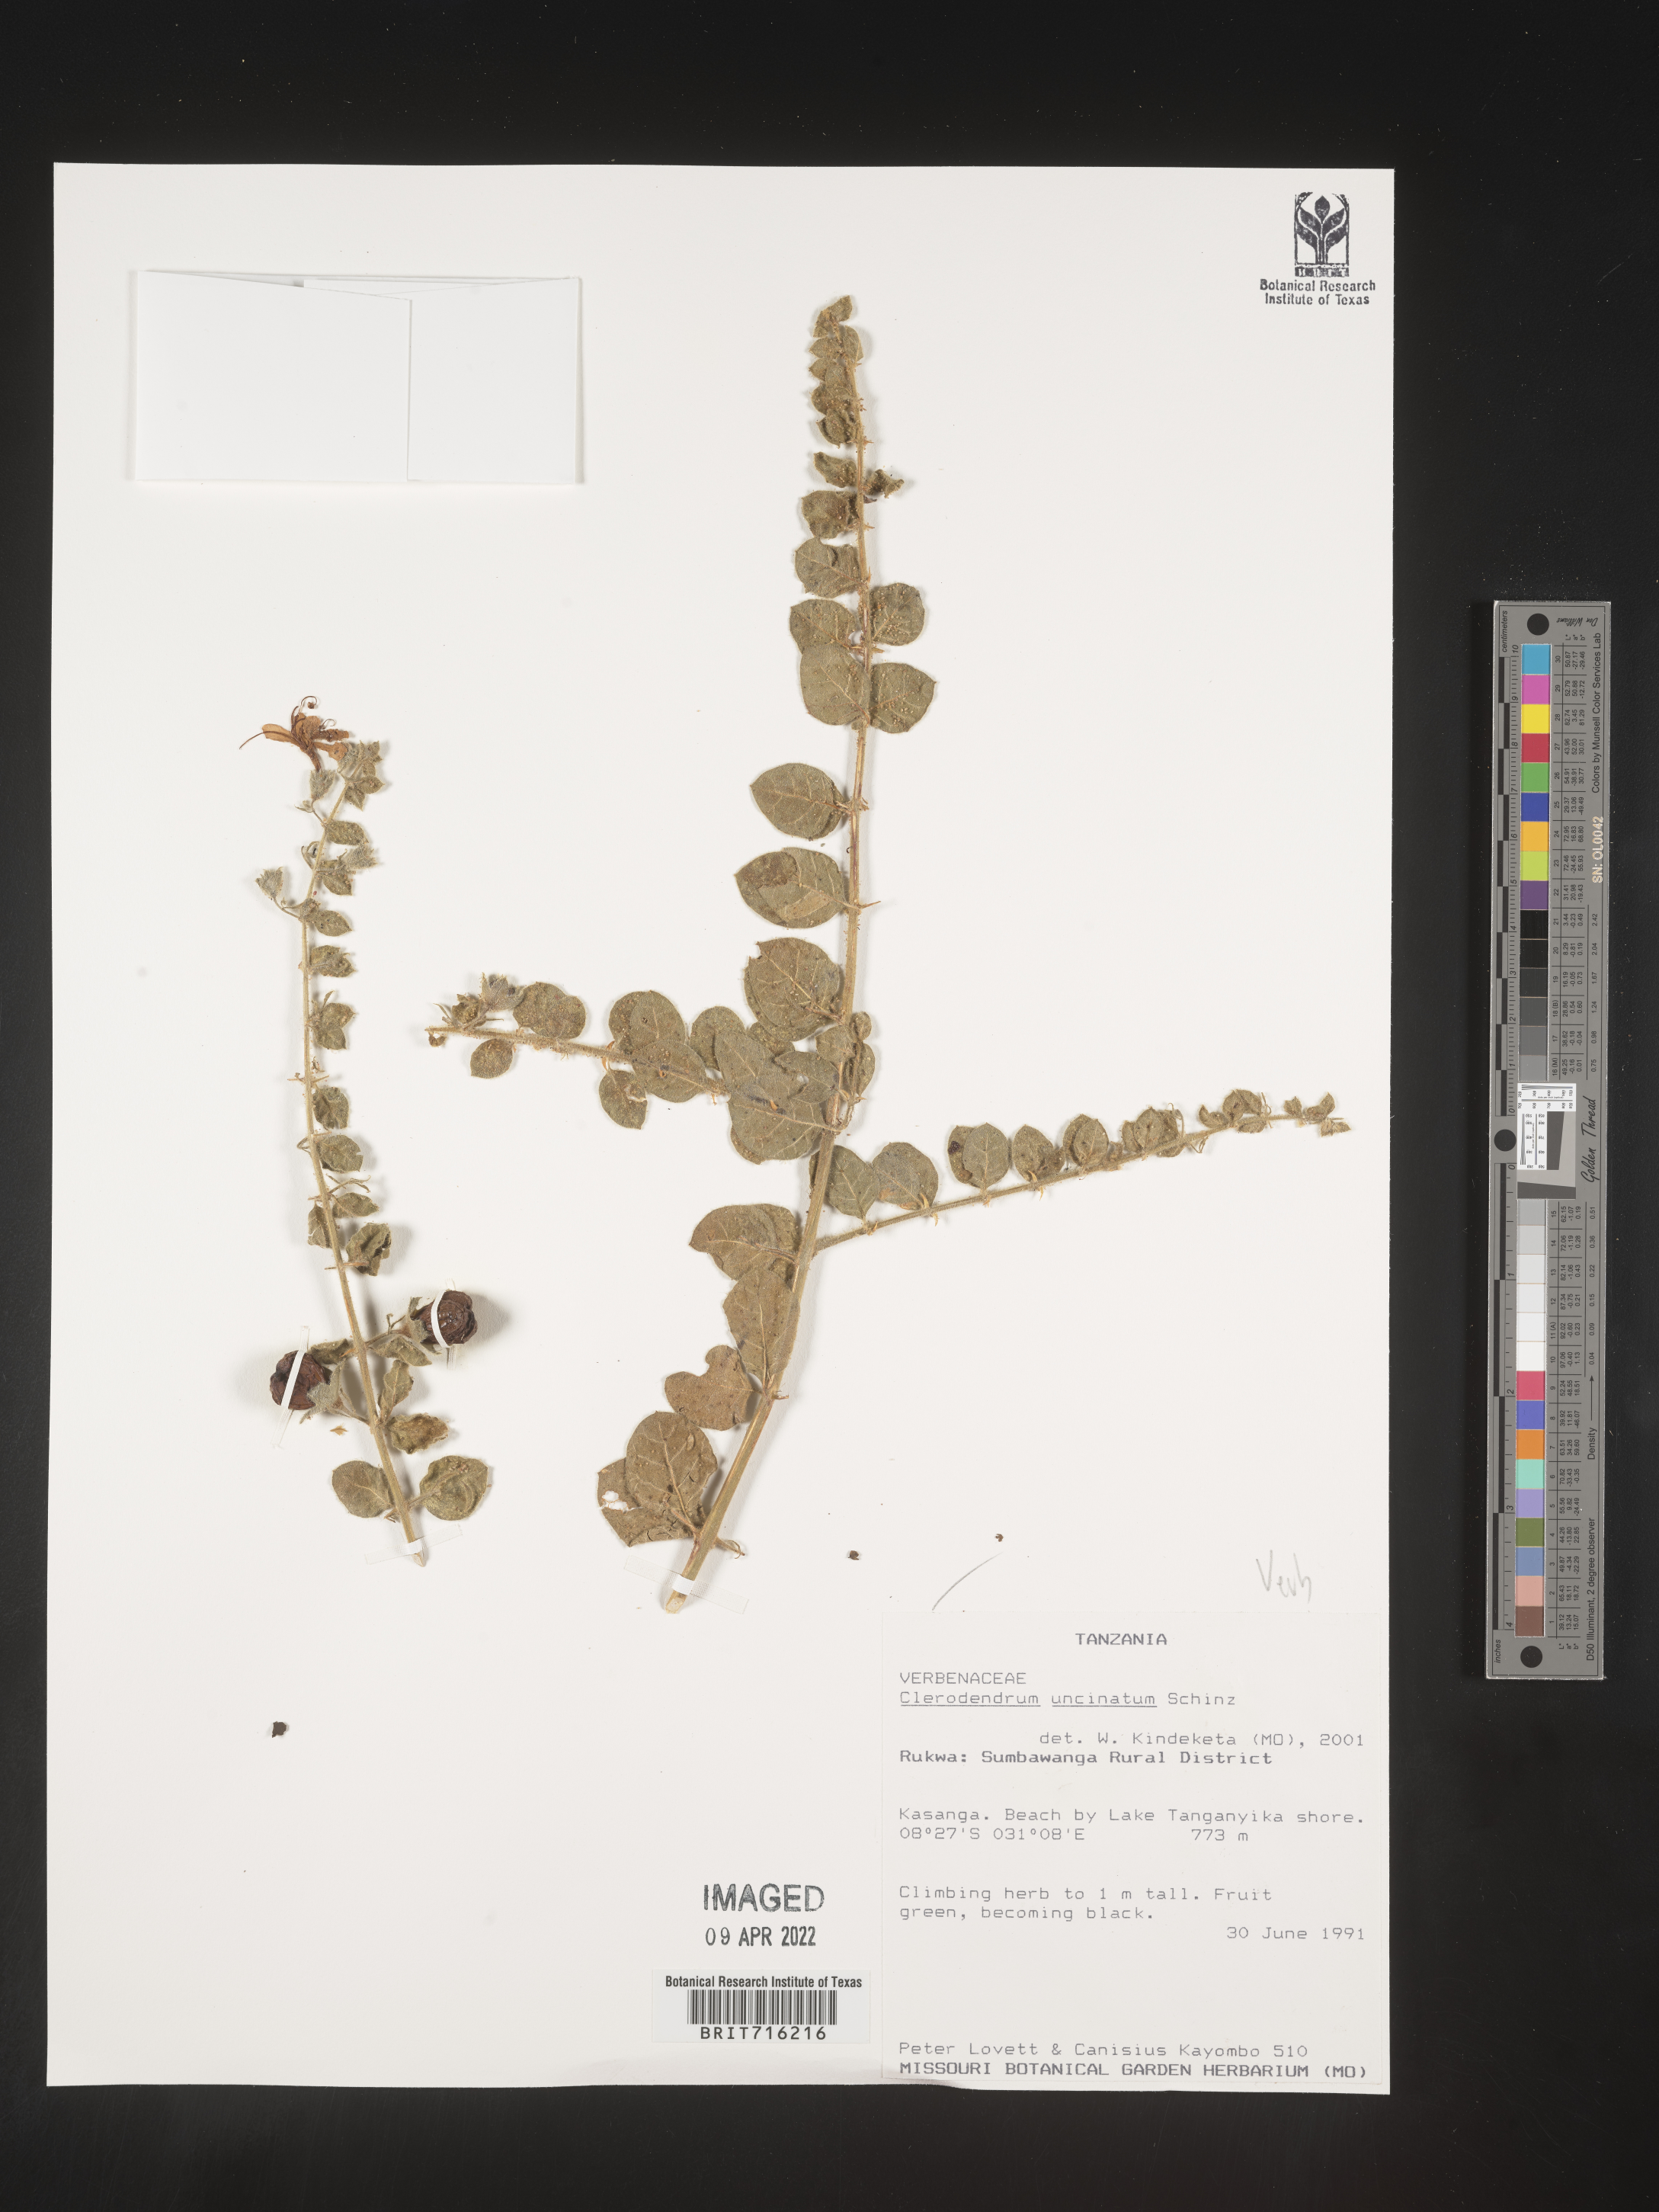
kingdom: Plantae
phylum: Tracheophyta
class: Magnoliopsida
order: Lamiales
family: Lamiaceae
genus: Clerodendrum
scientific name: Clerodendrum
